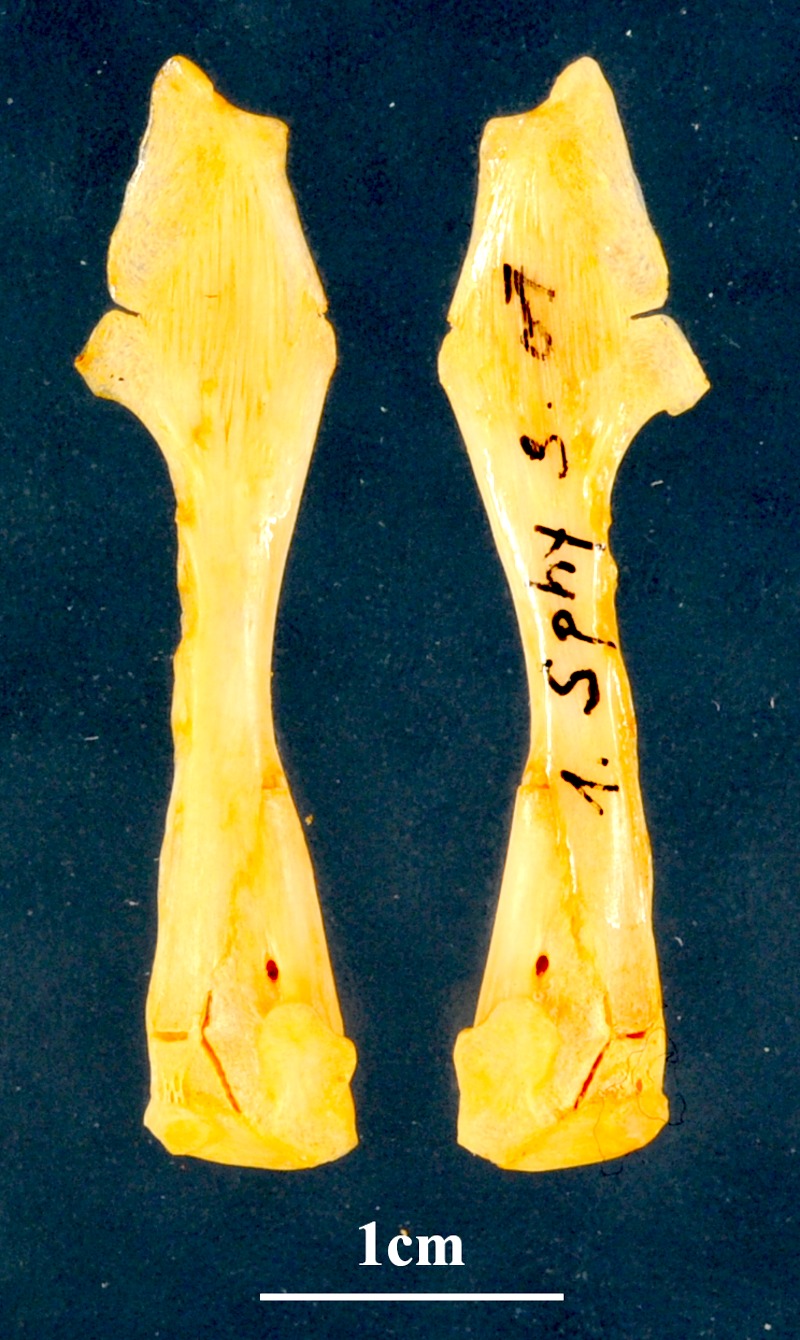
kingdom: Animalia
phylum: Chordata
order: Perciformes
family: Sphyraenidae
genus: Sphyraena
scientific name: Sphyraena sphyraena
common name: European barracuda
